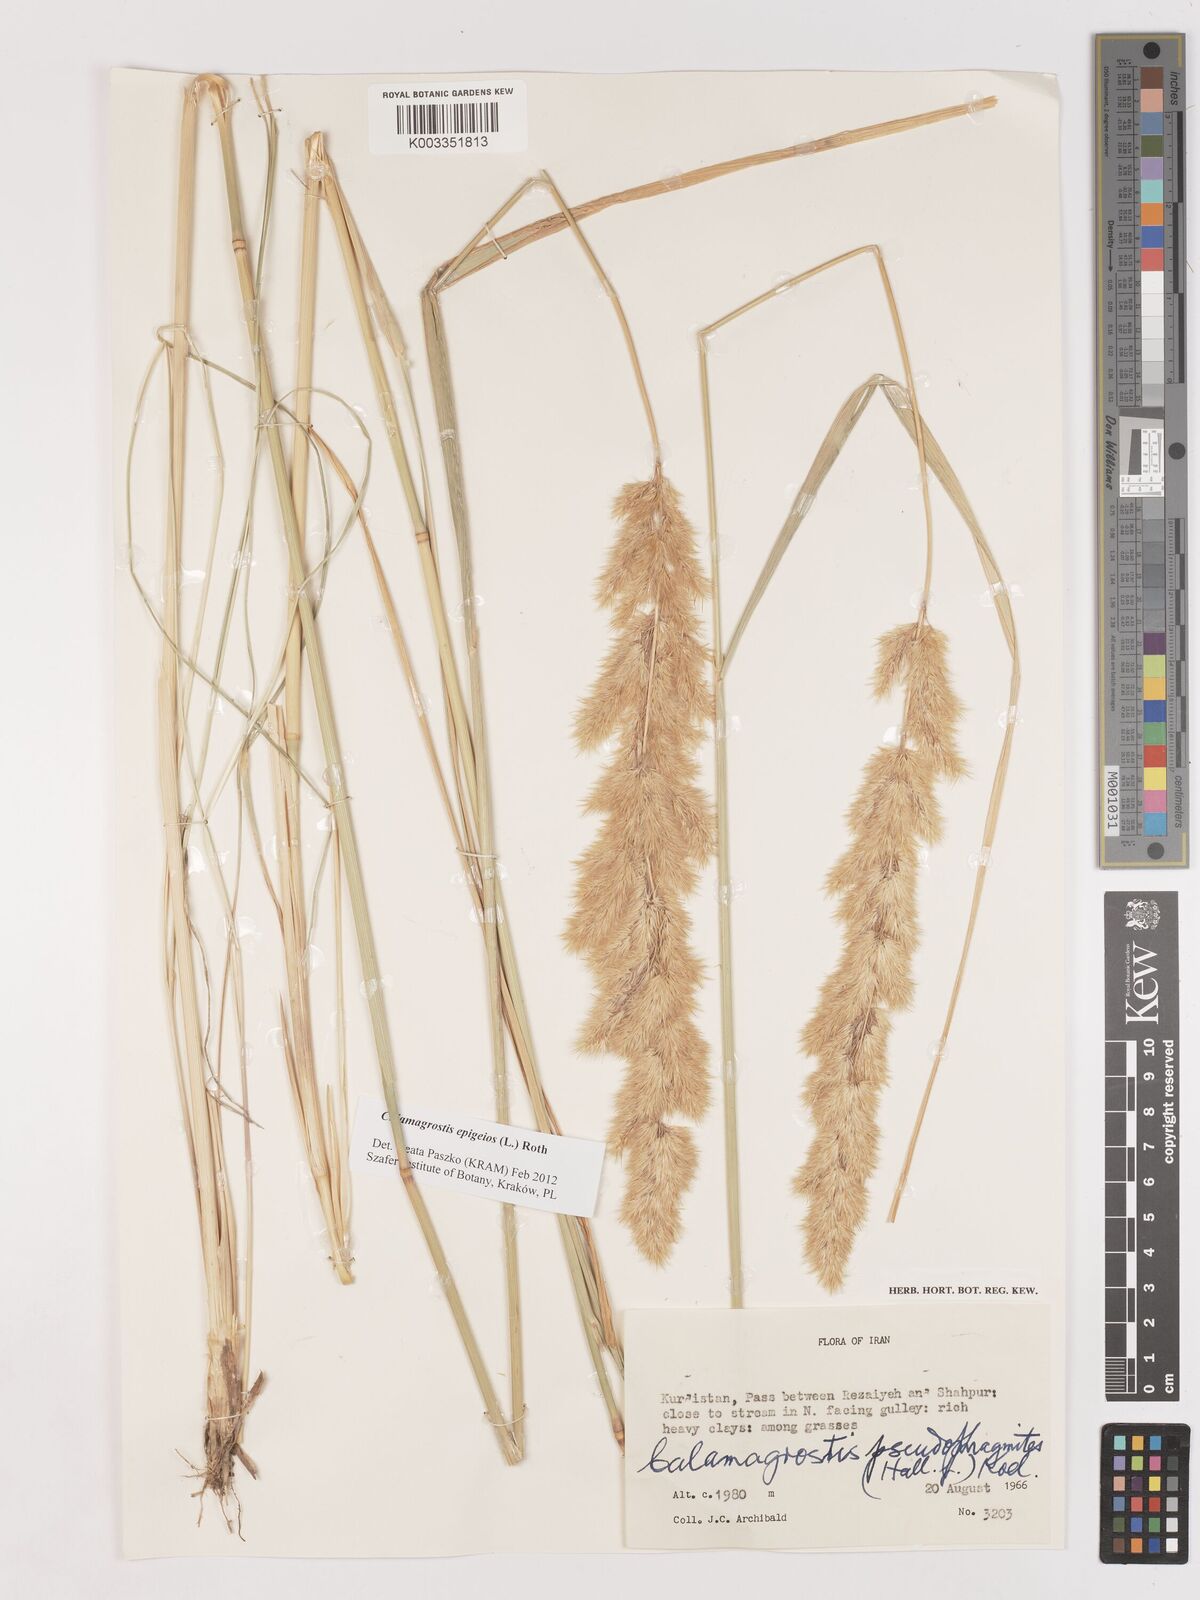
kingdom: Plantae
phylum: Tracheophyta
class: Liliopsida
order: Poales
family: Poaceae
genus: Calamagrostis
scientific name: Calamagrostis pseudophragmites
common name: Coastal small-reed
